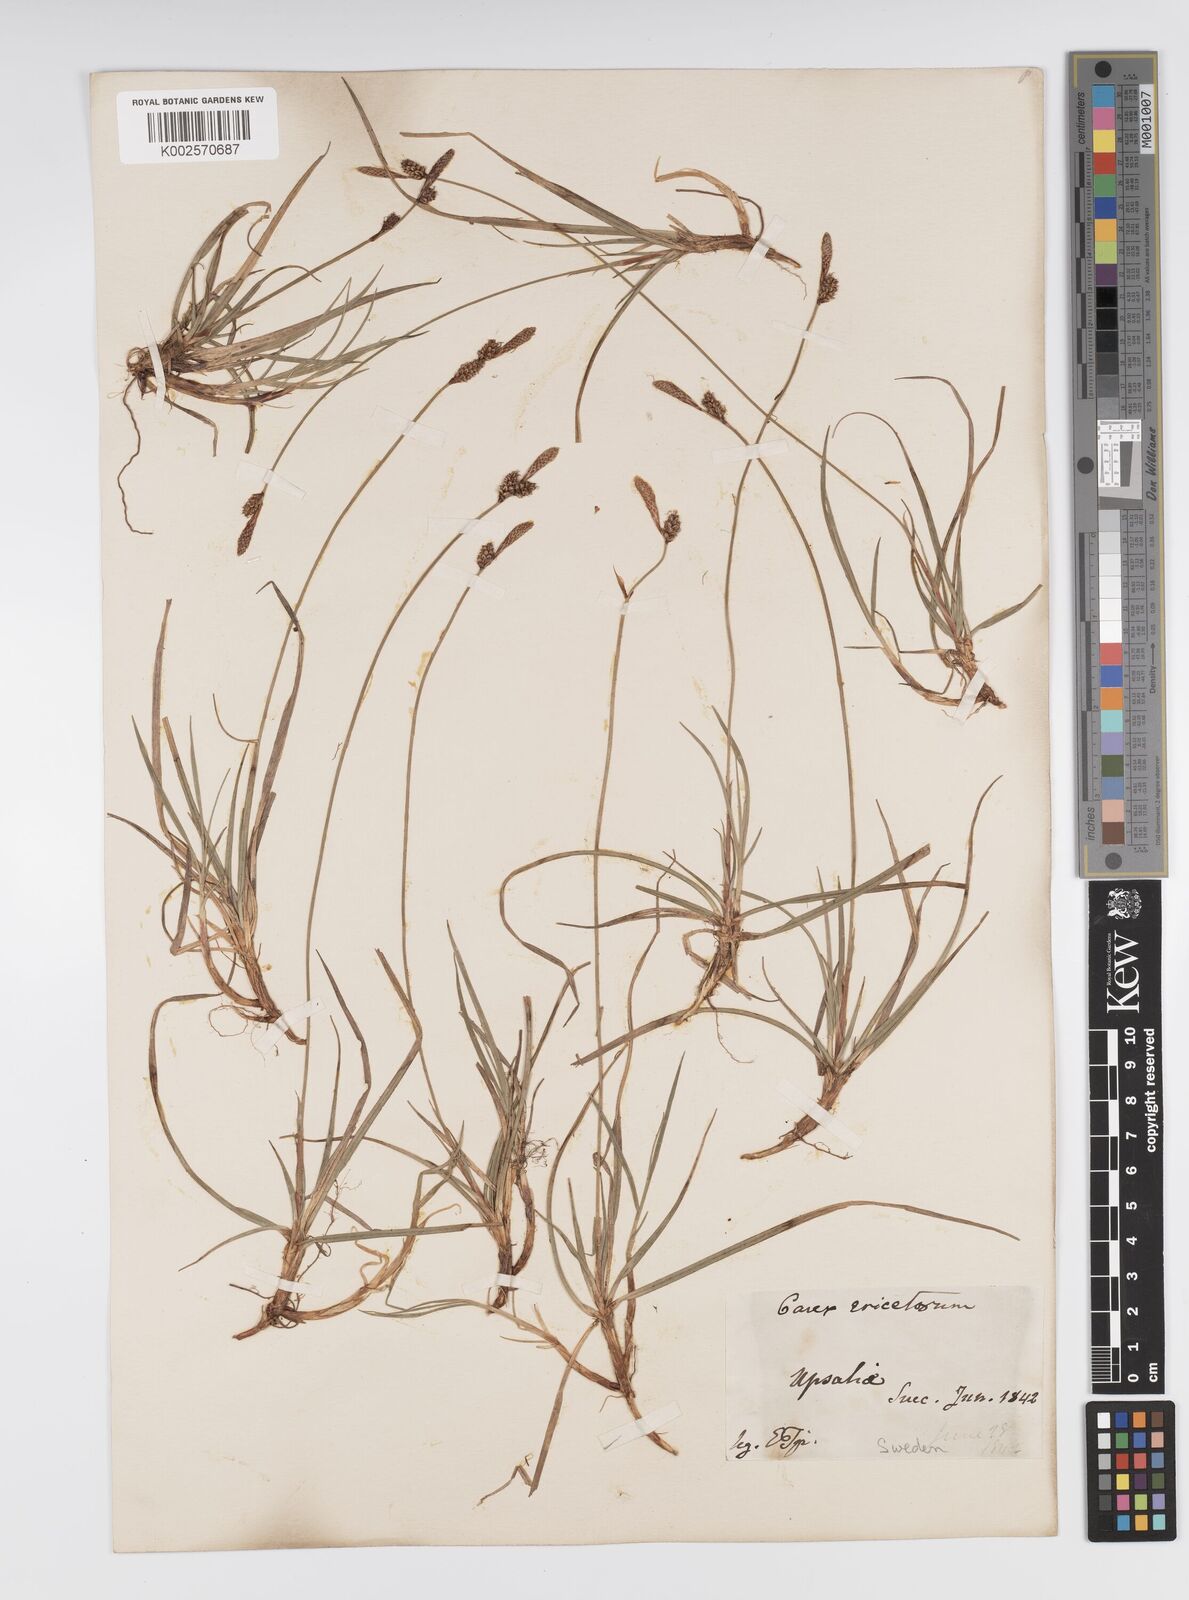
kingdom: Plantae
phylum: Tracheophyta
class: Liliopsida
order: Poales
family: Cyperaceae
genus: Carex
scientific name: Carex ericetorum
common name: Rare spring-sedge
